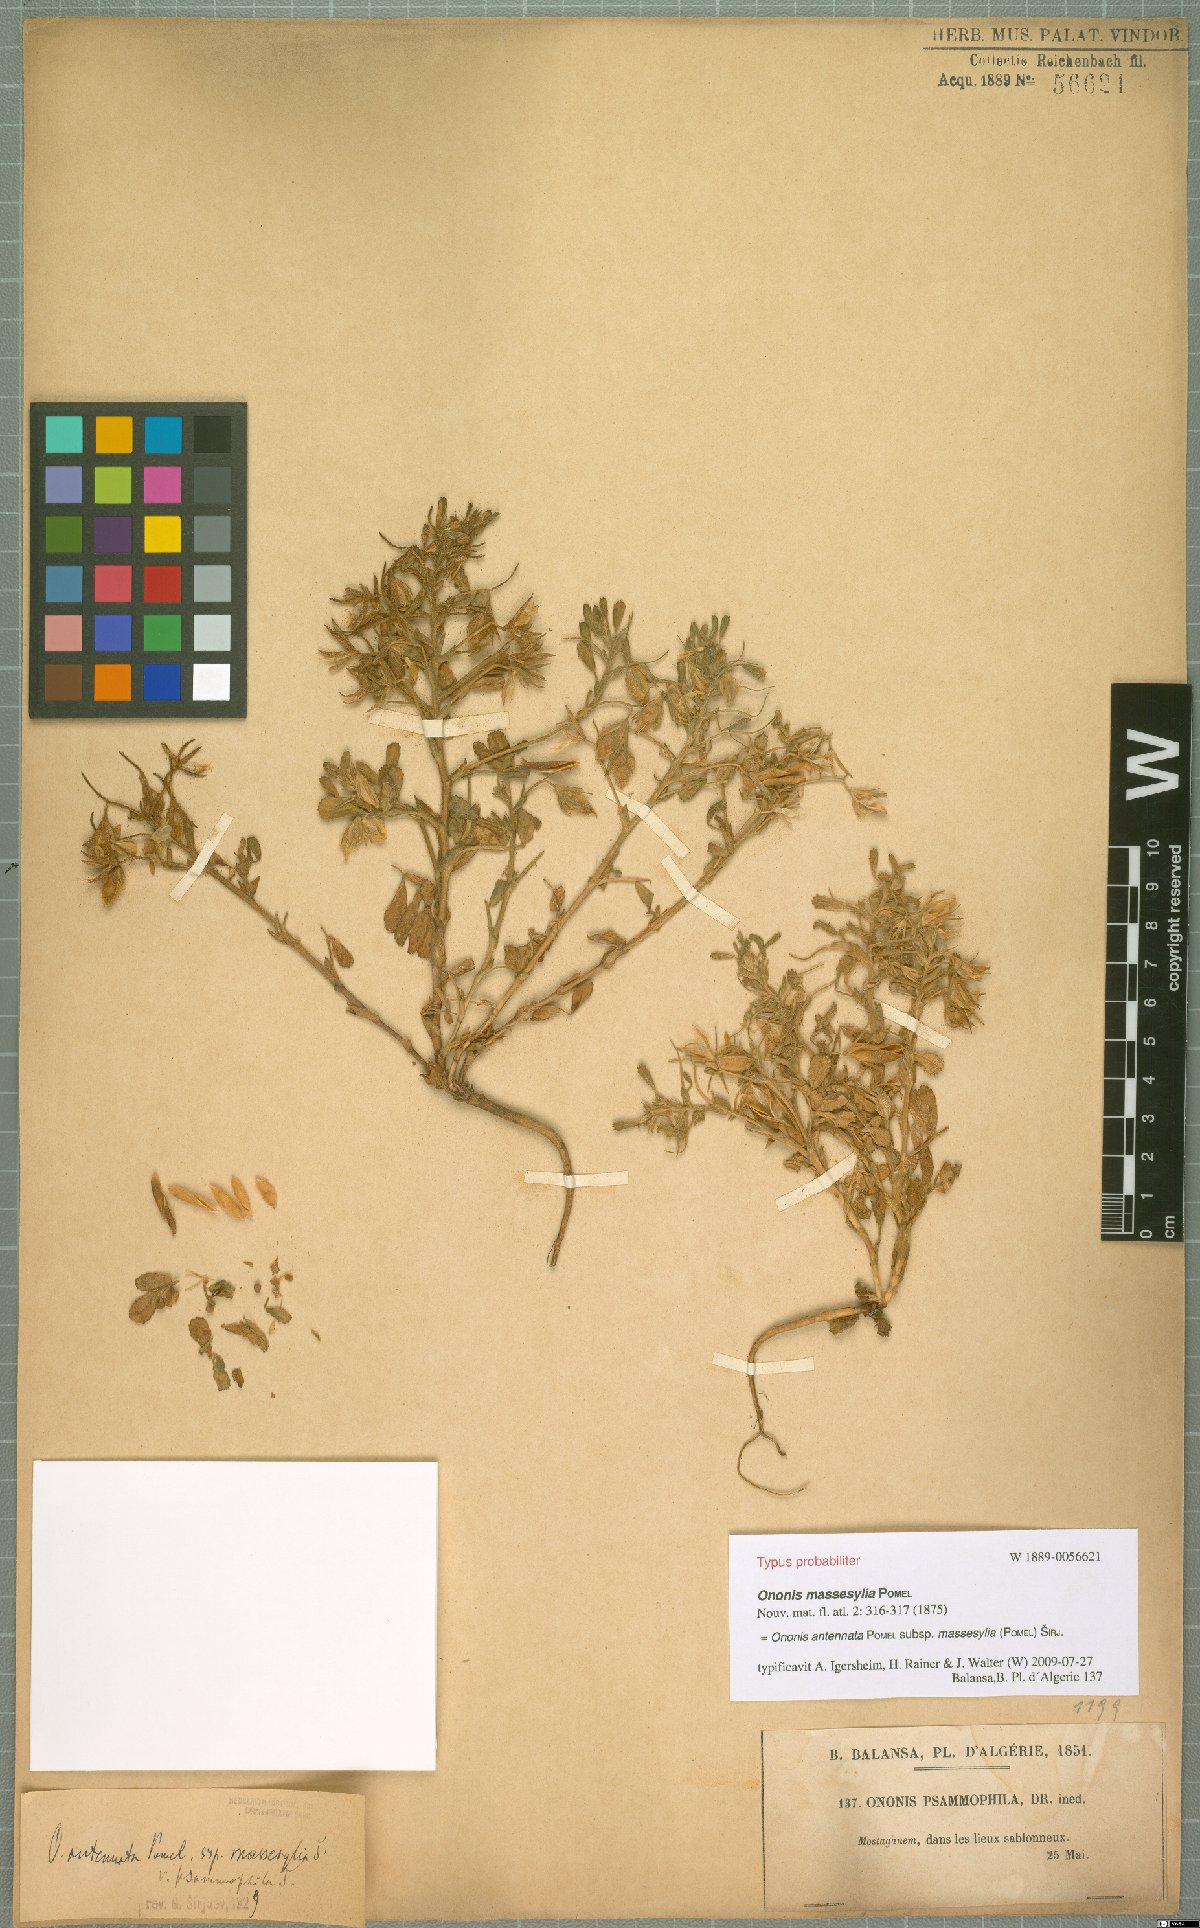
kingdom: Plantae
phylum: Tracheophyta
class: Magnoliopsida
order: Fabales
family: Fabaceae
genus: Ononis
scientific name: Ononis antennata
